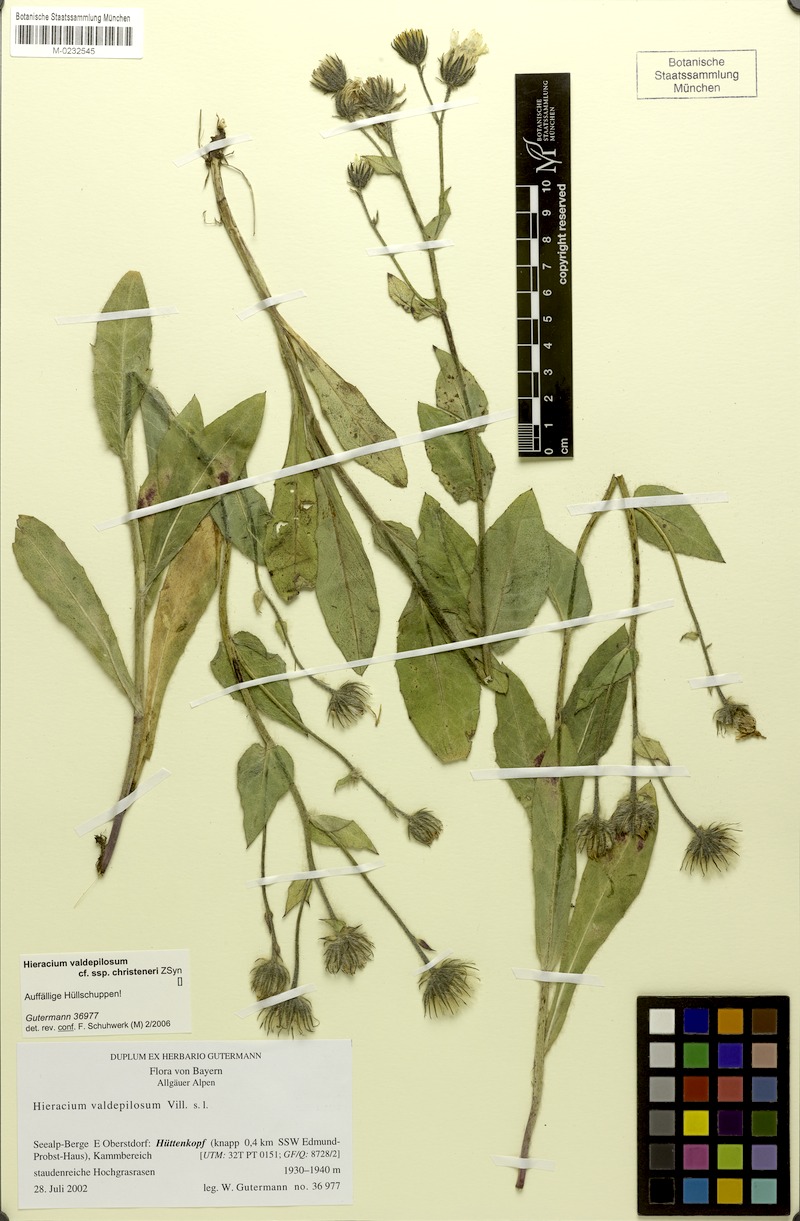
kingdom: Plantae
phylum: Tracheophyta
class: Magnoliopsida
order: Asterales
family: Asteraceae
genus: Hieracium
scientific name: Hieracium valdepilosum
